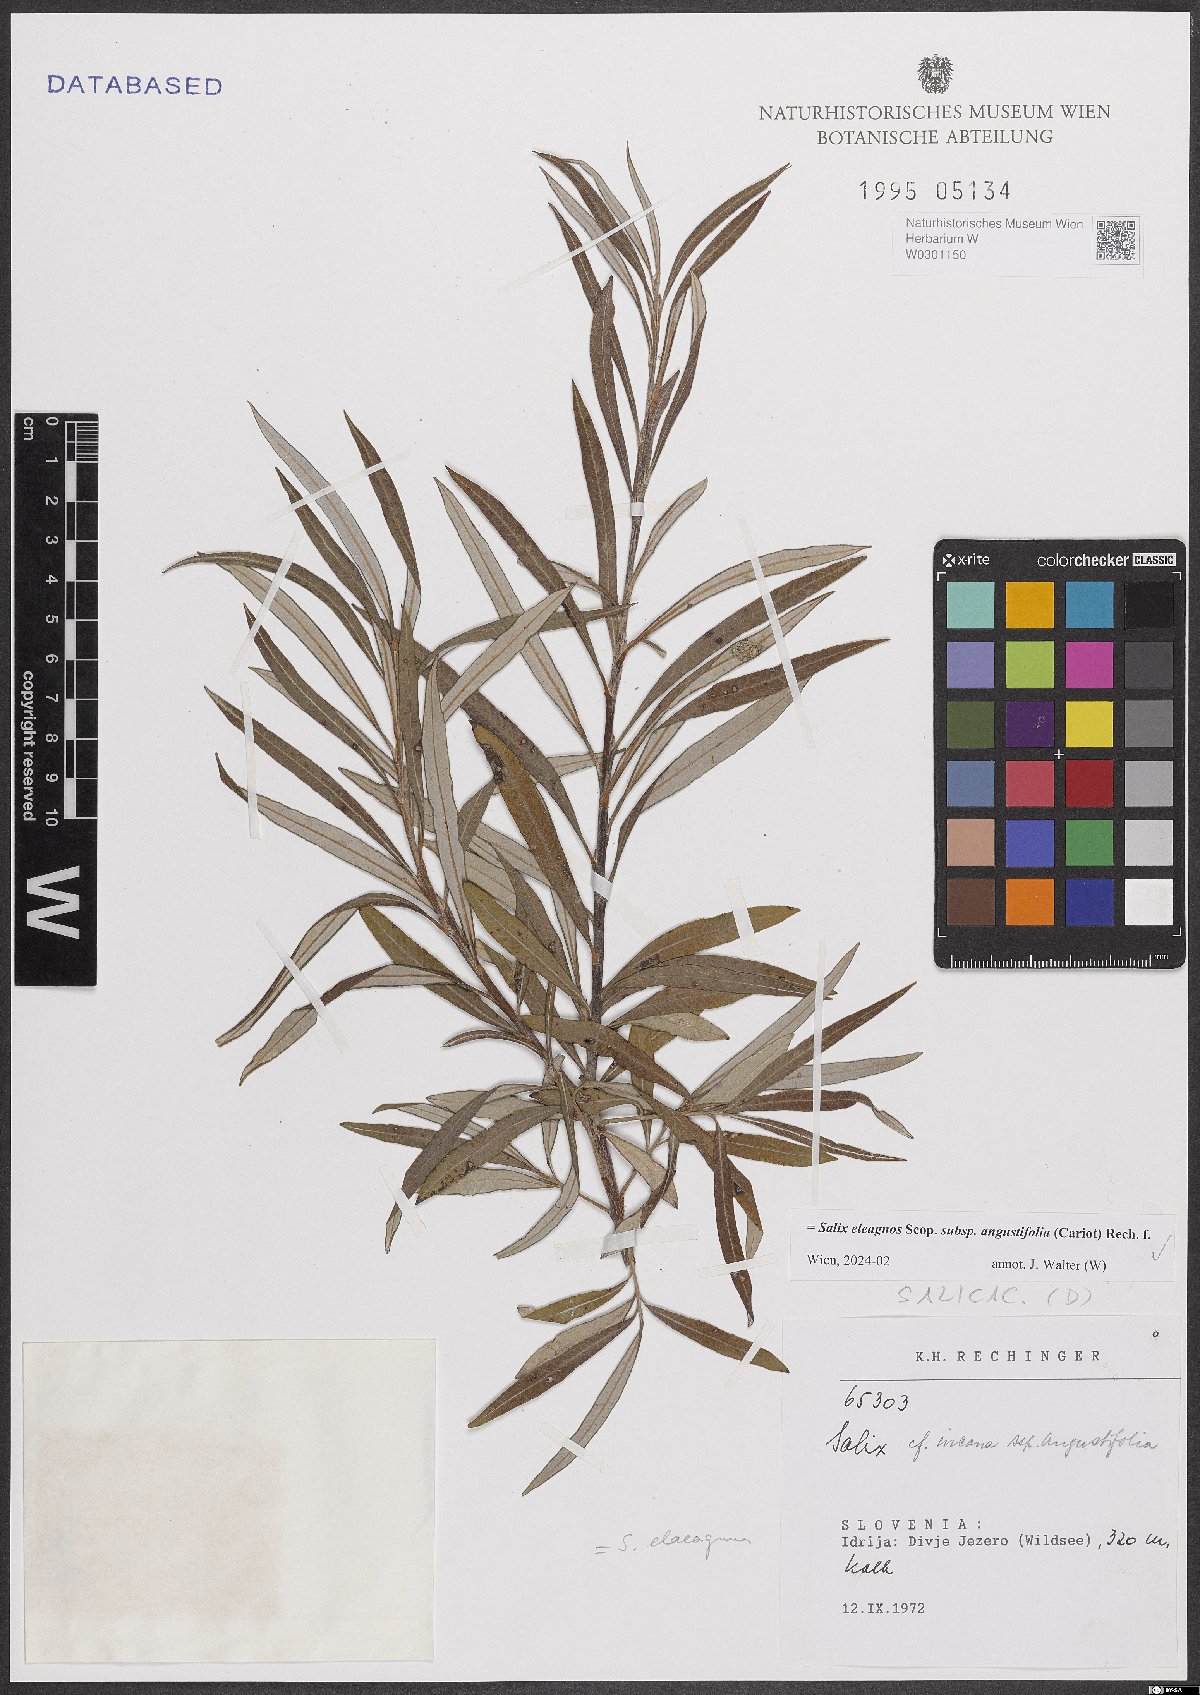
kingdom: Plantae
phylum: Tracheophyta
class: Magnoliopsida
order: Malpighiales
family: Salicaceae
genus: Salix
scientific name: Salix eleagnos
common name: Elaeagnus willow
